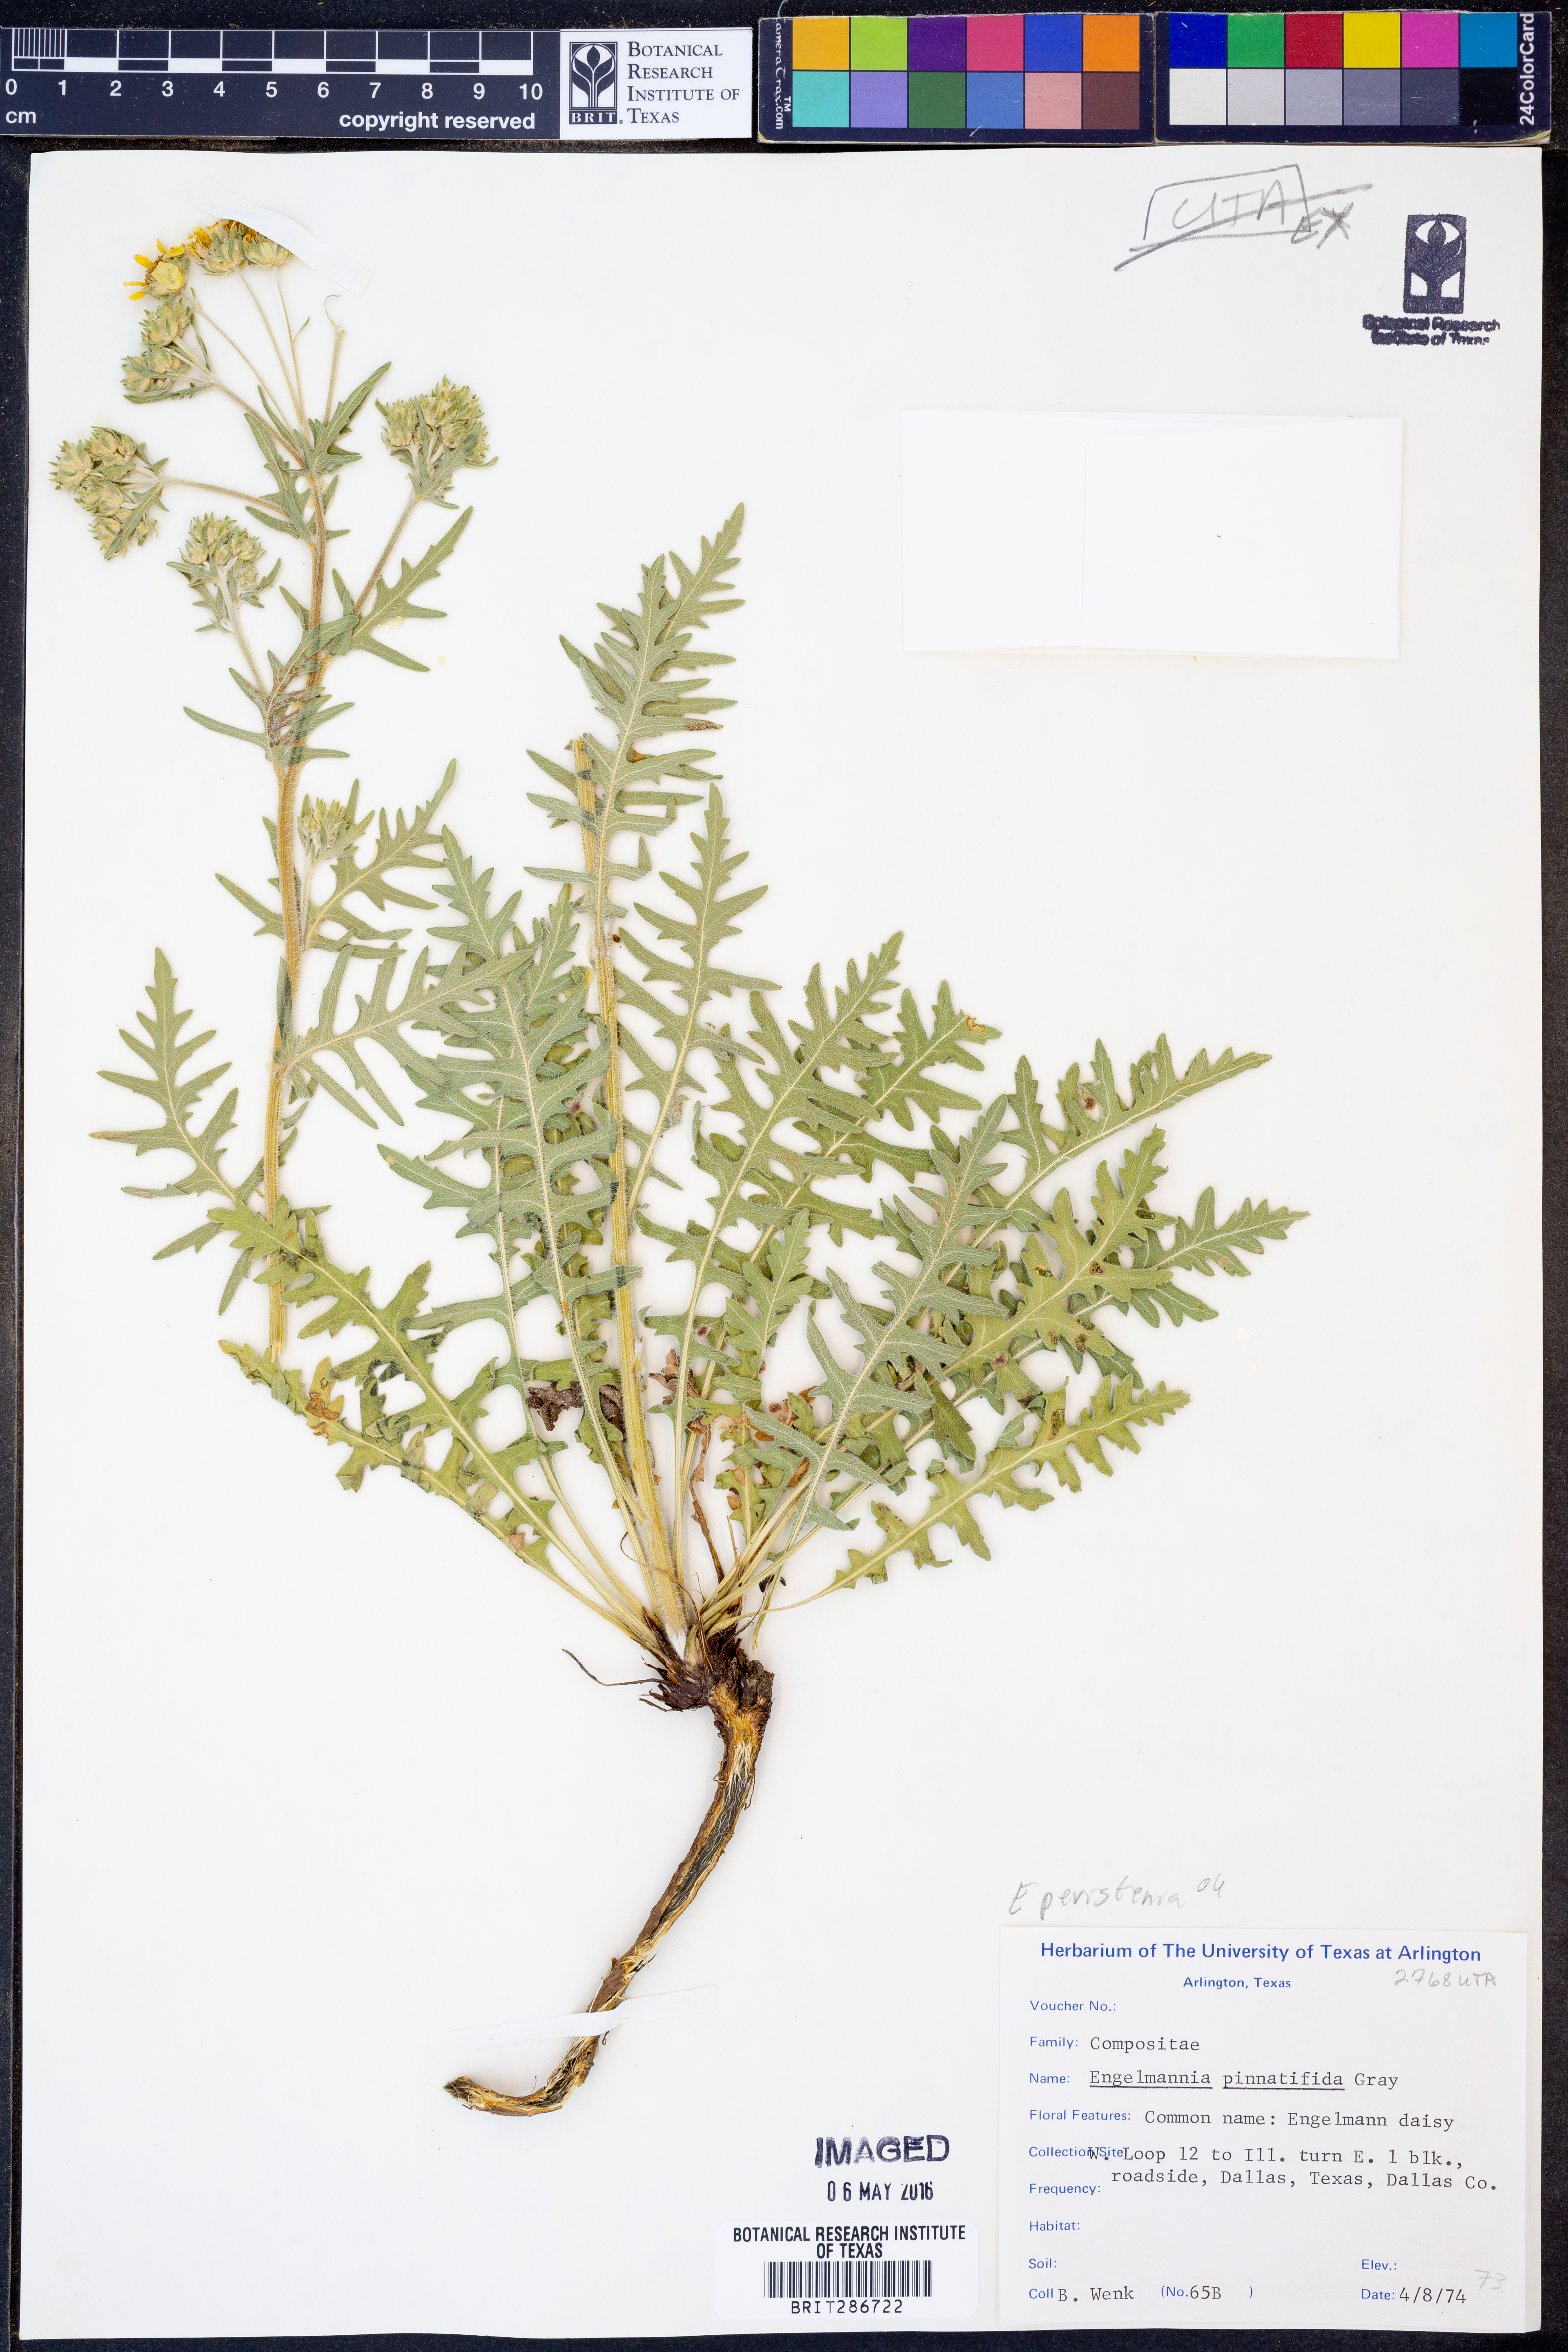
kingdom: Plantae
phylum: Tracheophyta
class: Magnoliopsida
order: Asterales
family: Asteraceae
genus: Engelmannia
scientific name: Engelmannia peristenia
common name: Engelmann's daisy
